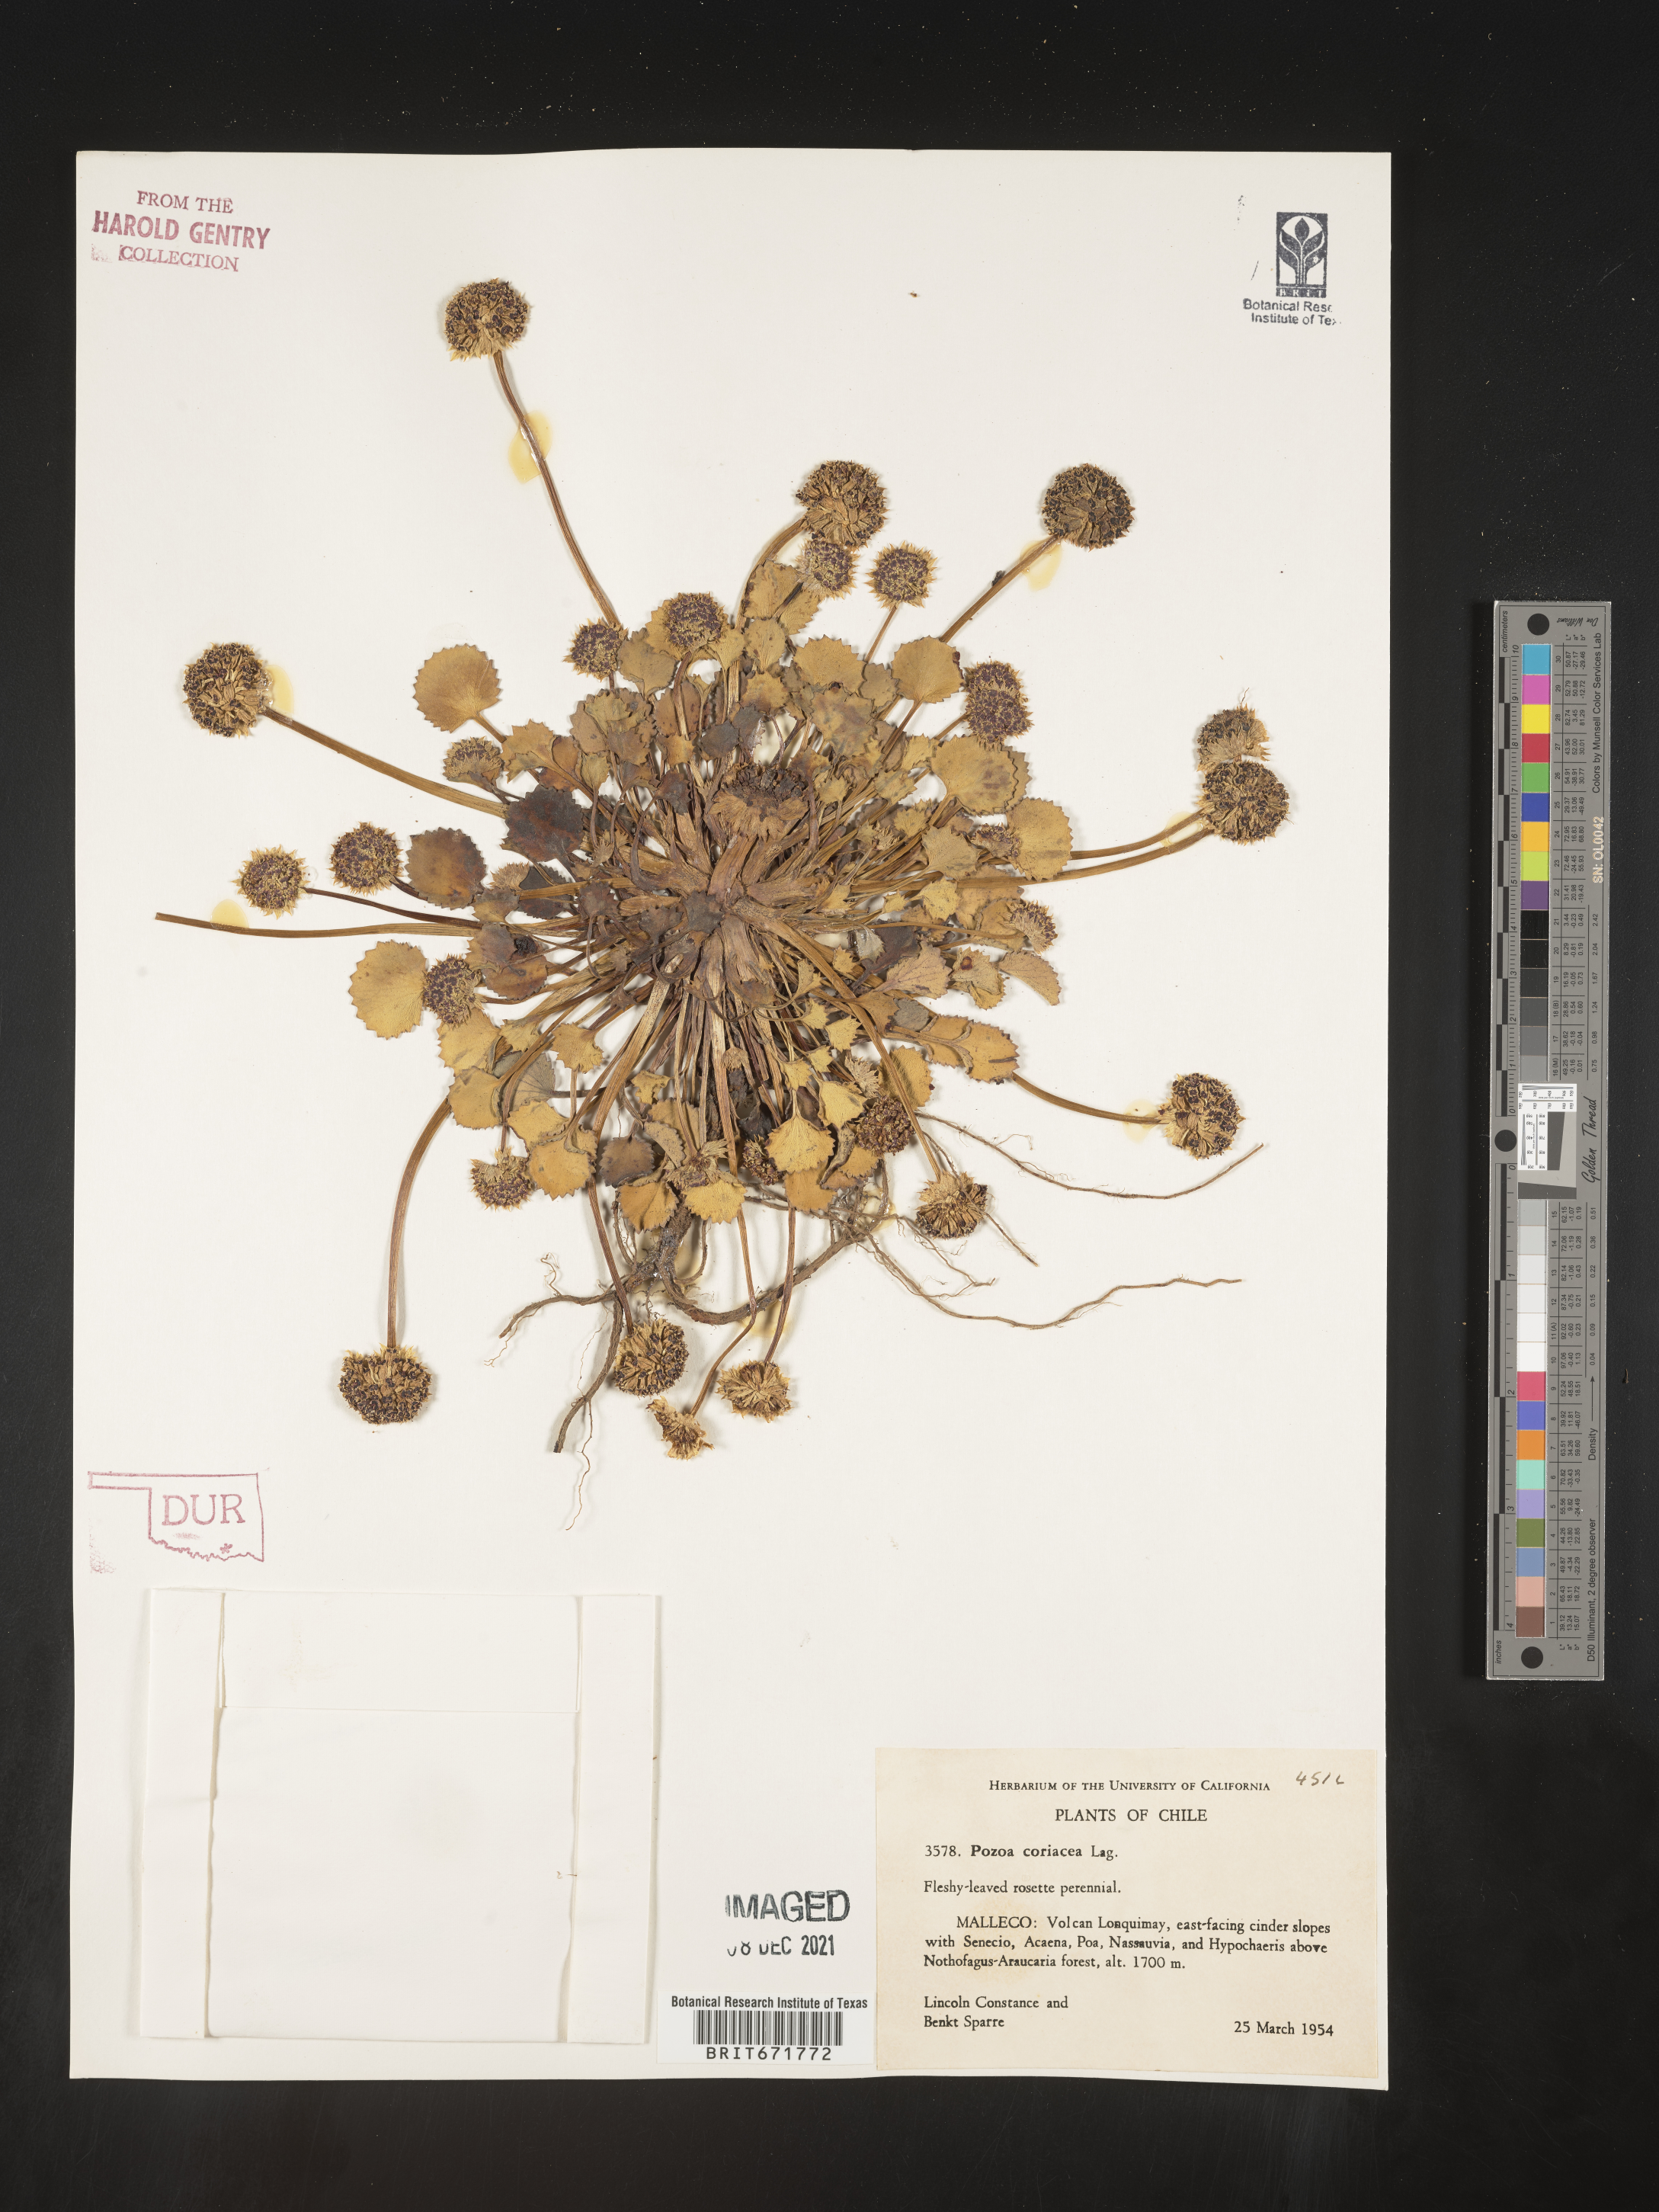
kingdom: Plantae
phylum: Tracheophyta
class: Magnoliopsida
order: Apiales
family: Apiaceae
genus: Pozoa
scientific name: Pozoa coriacea
